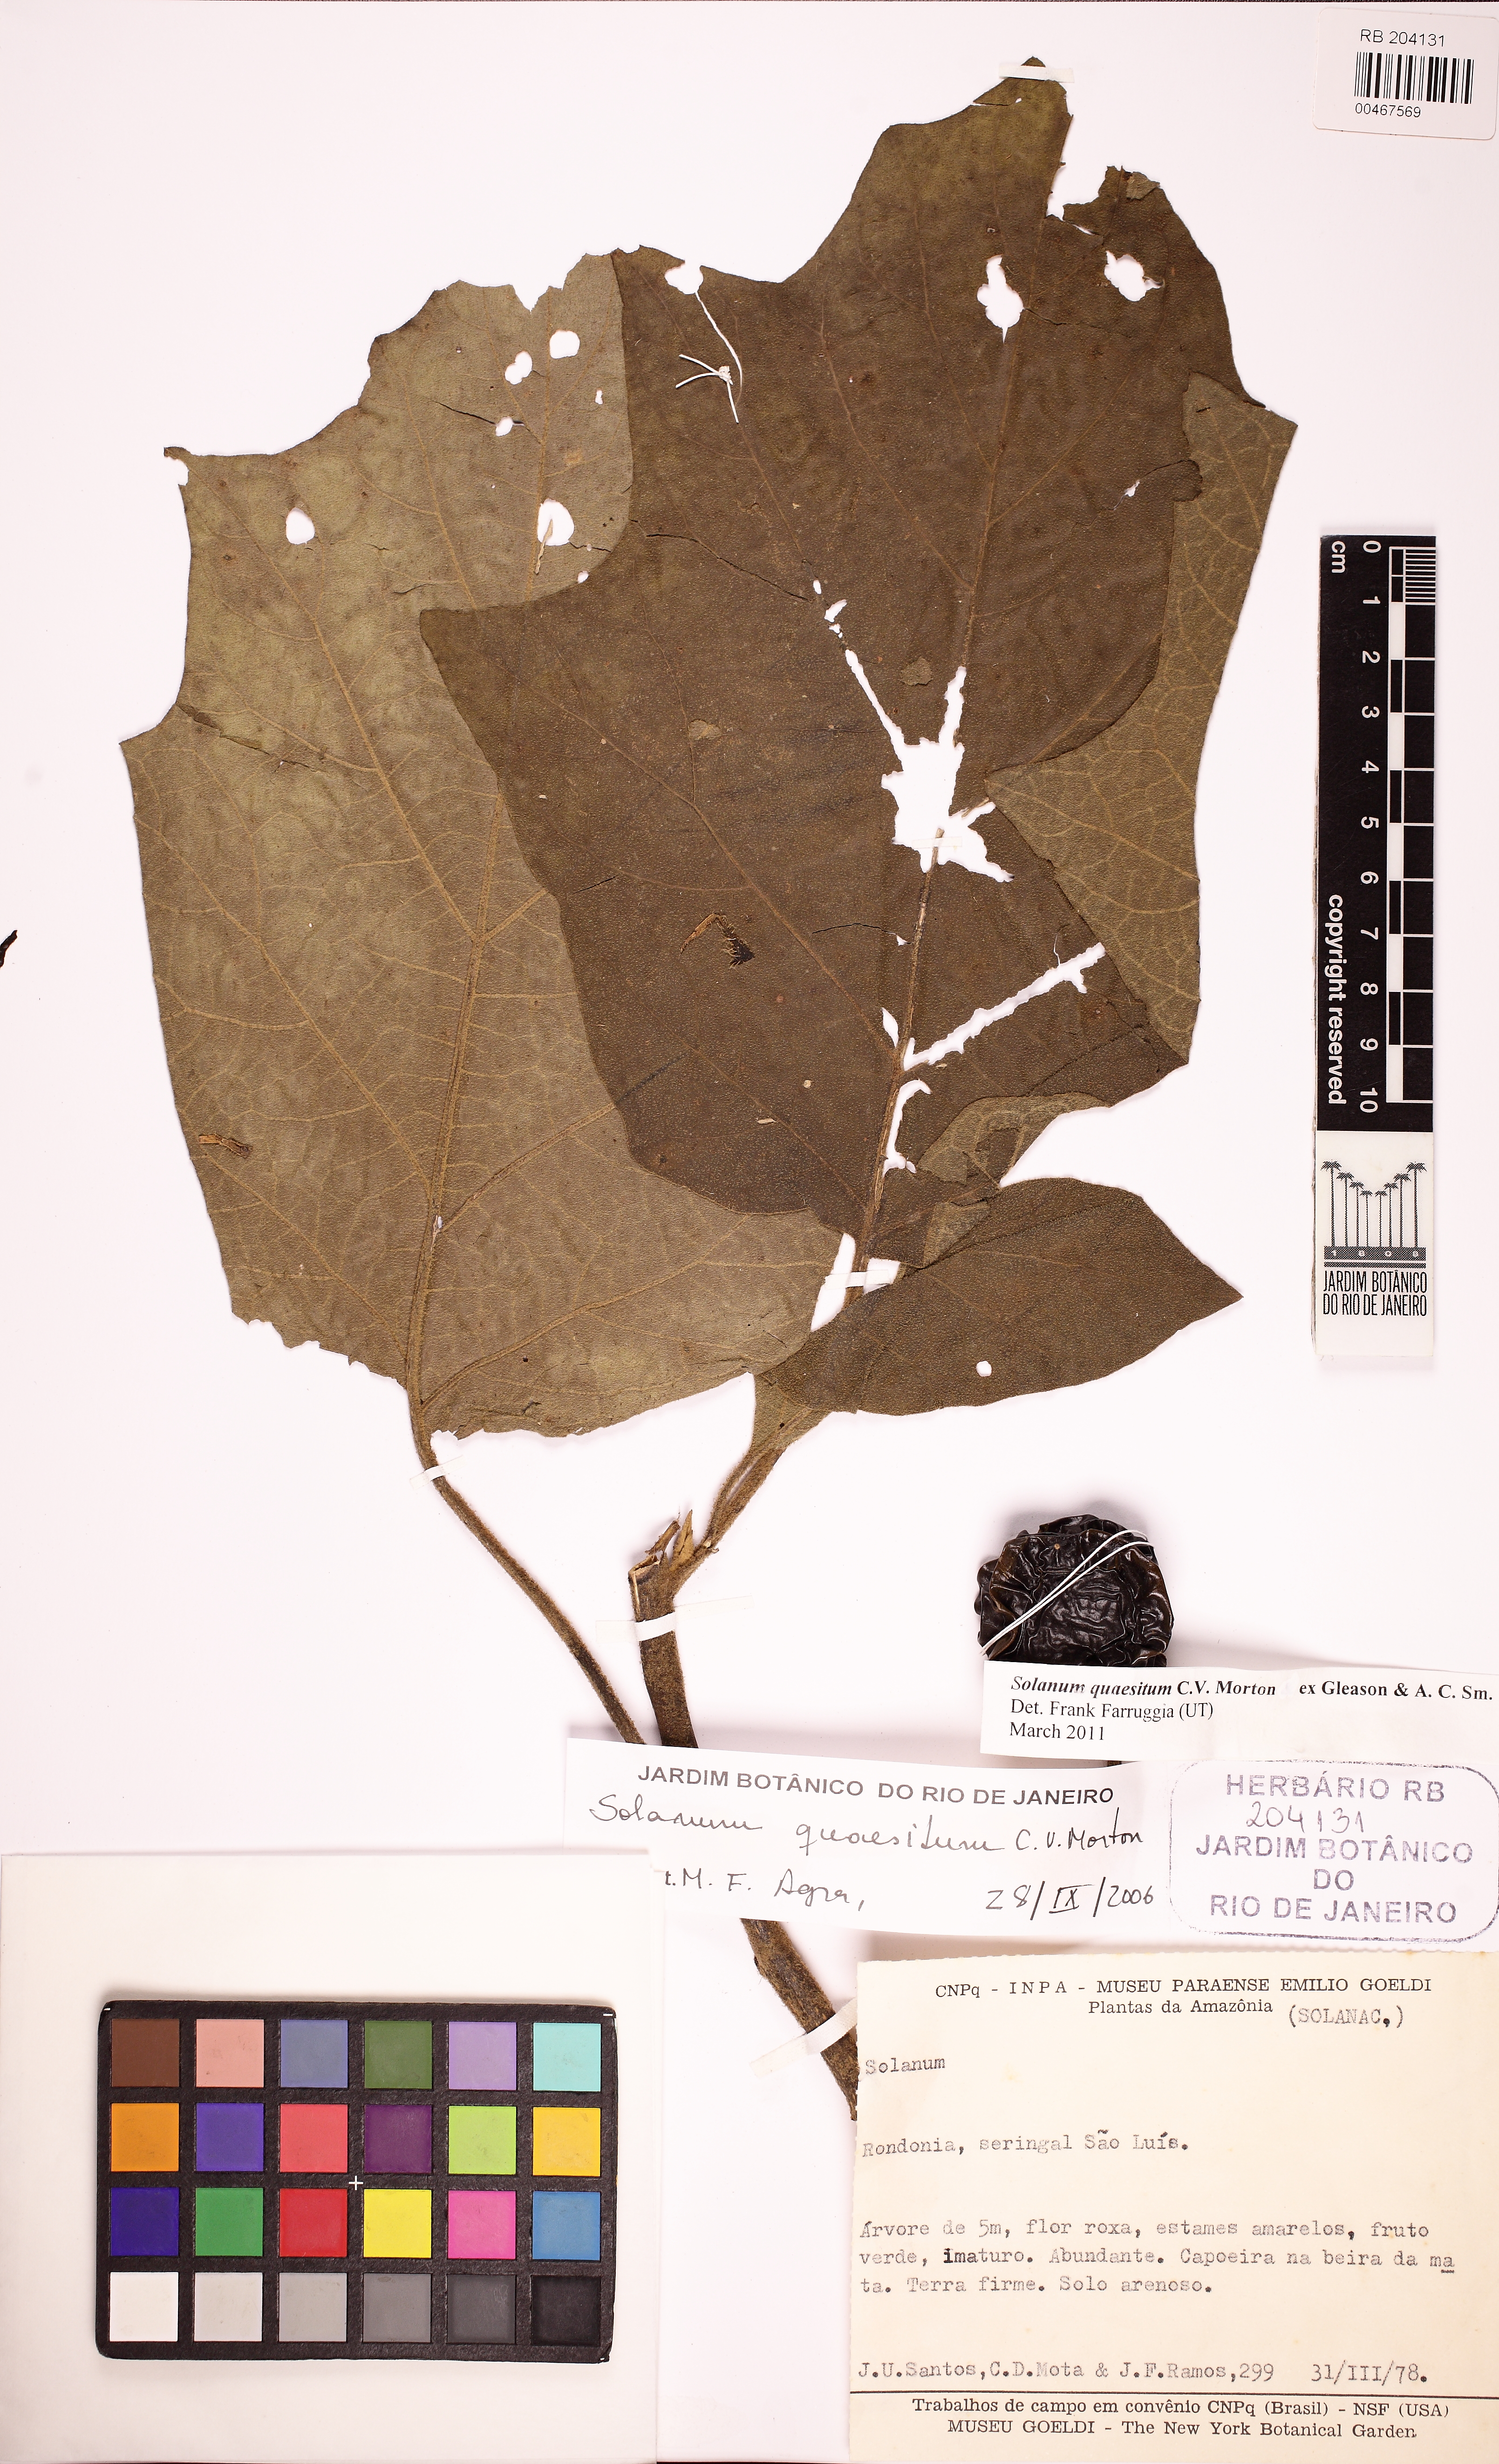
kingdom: Plantae
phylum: Tracheophyta
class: Magnoliopsida
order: Solanales
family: Solanaceae
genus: Solanum
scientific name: Solanum quaesitum
